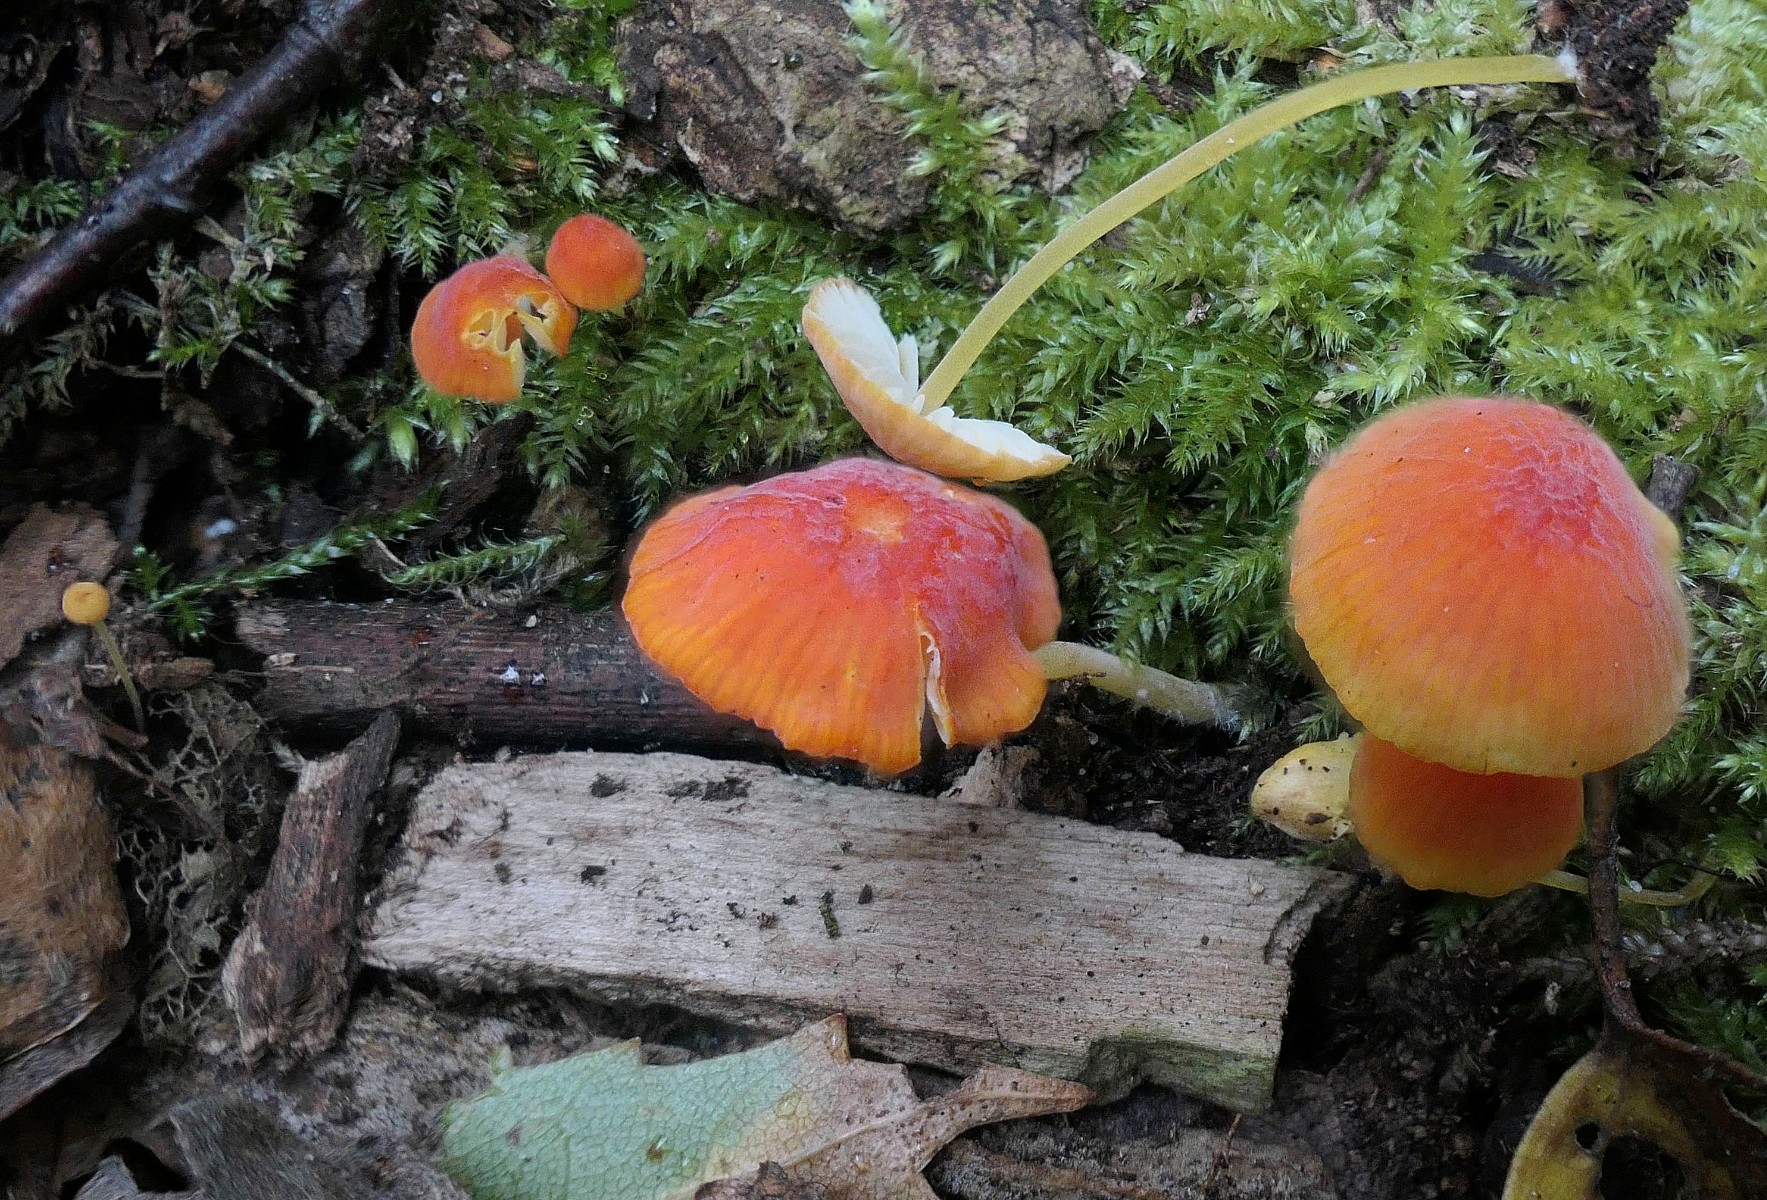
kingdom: Fungi
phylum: Basidiomycota
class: Agaricomycetes
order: Agaricales
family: Mycenaceae
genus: Mycena
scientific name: Mycena acicula
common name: orange huesvamp
